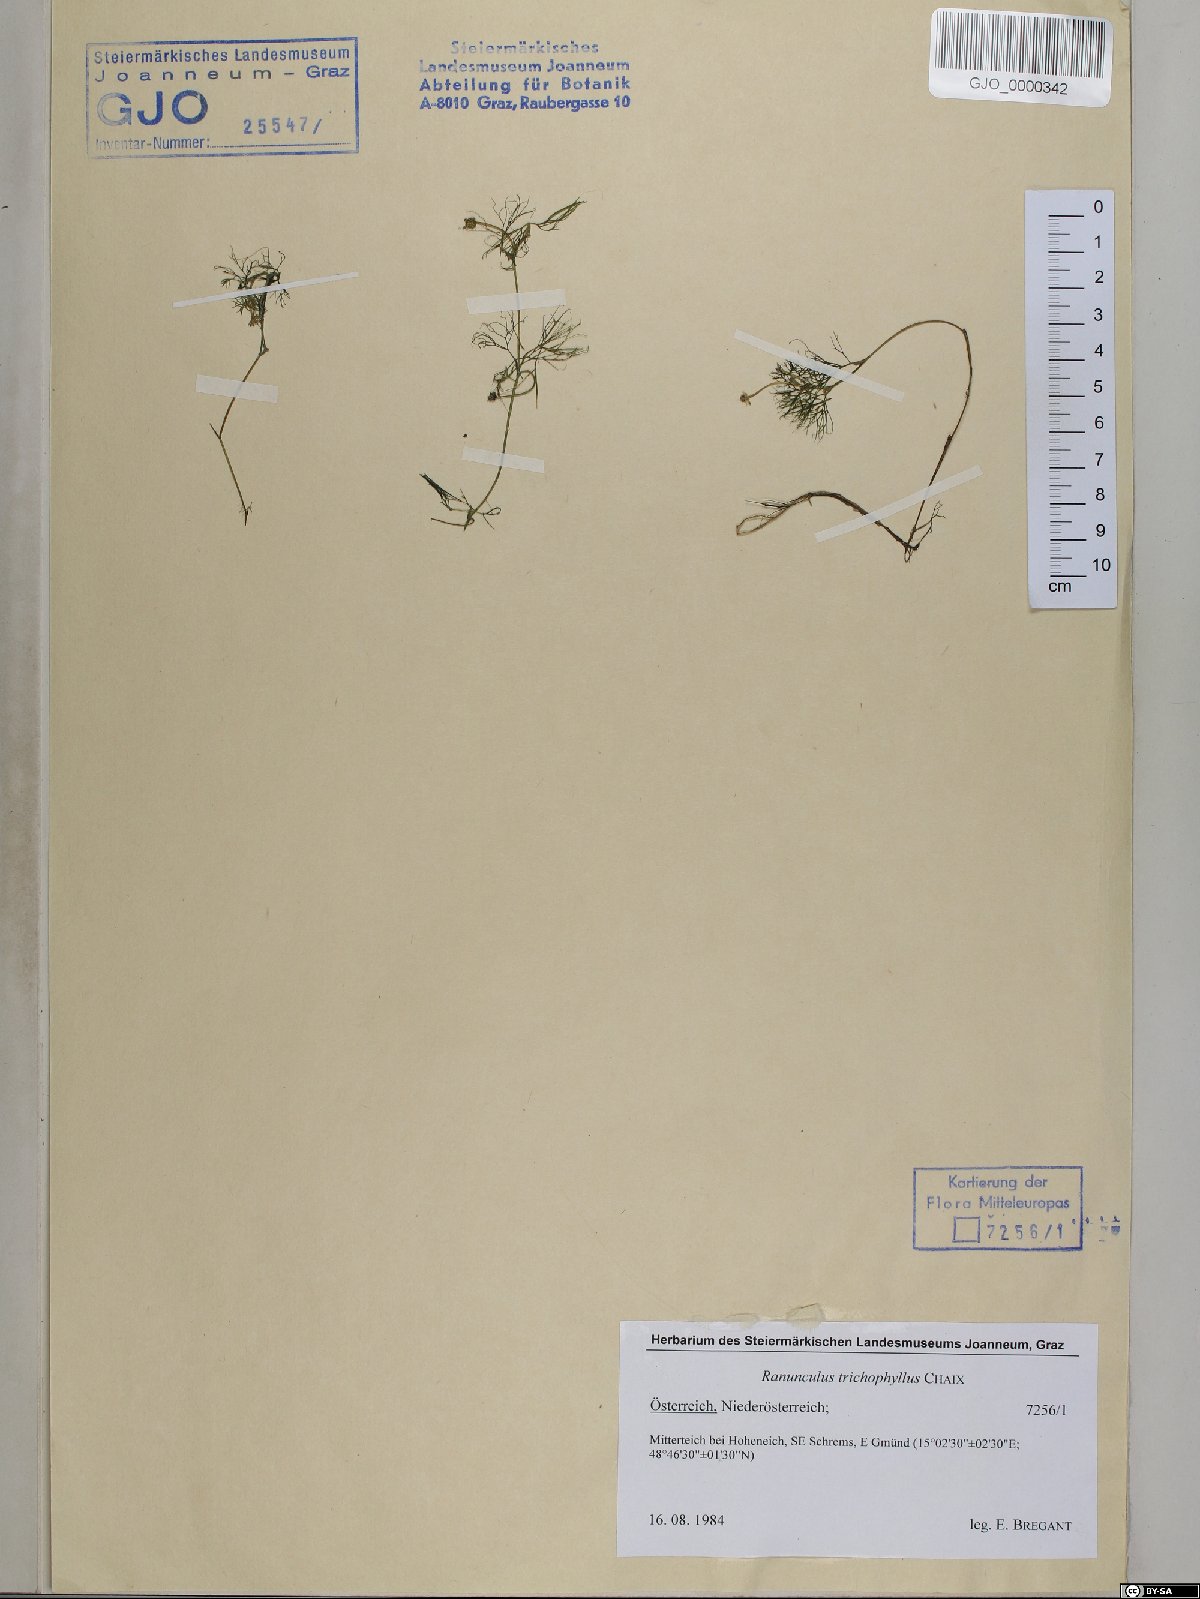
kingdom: Plantae
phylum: Tracheophyta
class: Magnoliopsida
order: Ranunculales
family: Ranunculaceae
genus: Ranunculus
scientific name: Ranunculus trichophyllus
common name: Thread-leaved water-crowfoot
